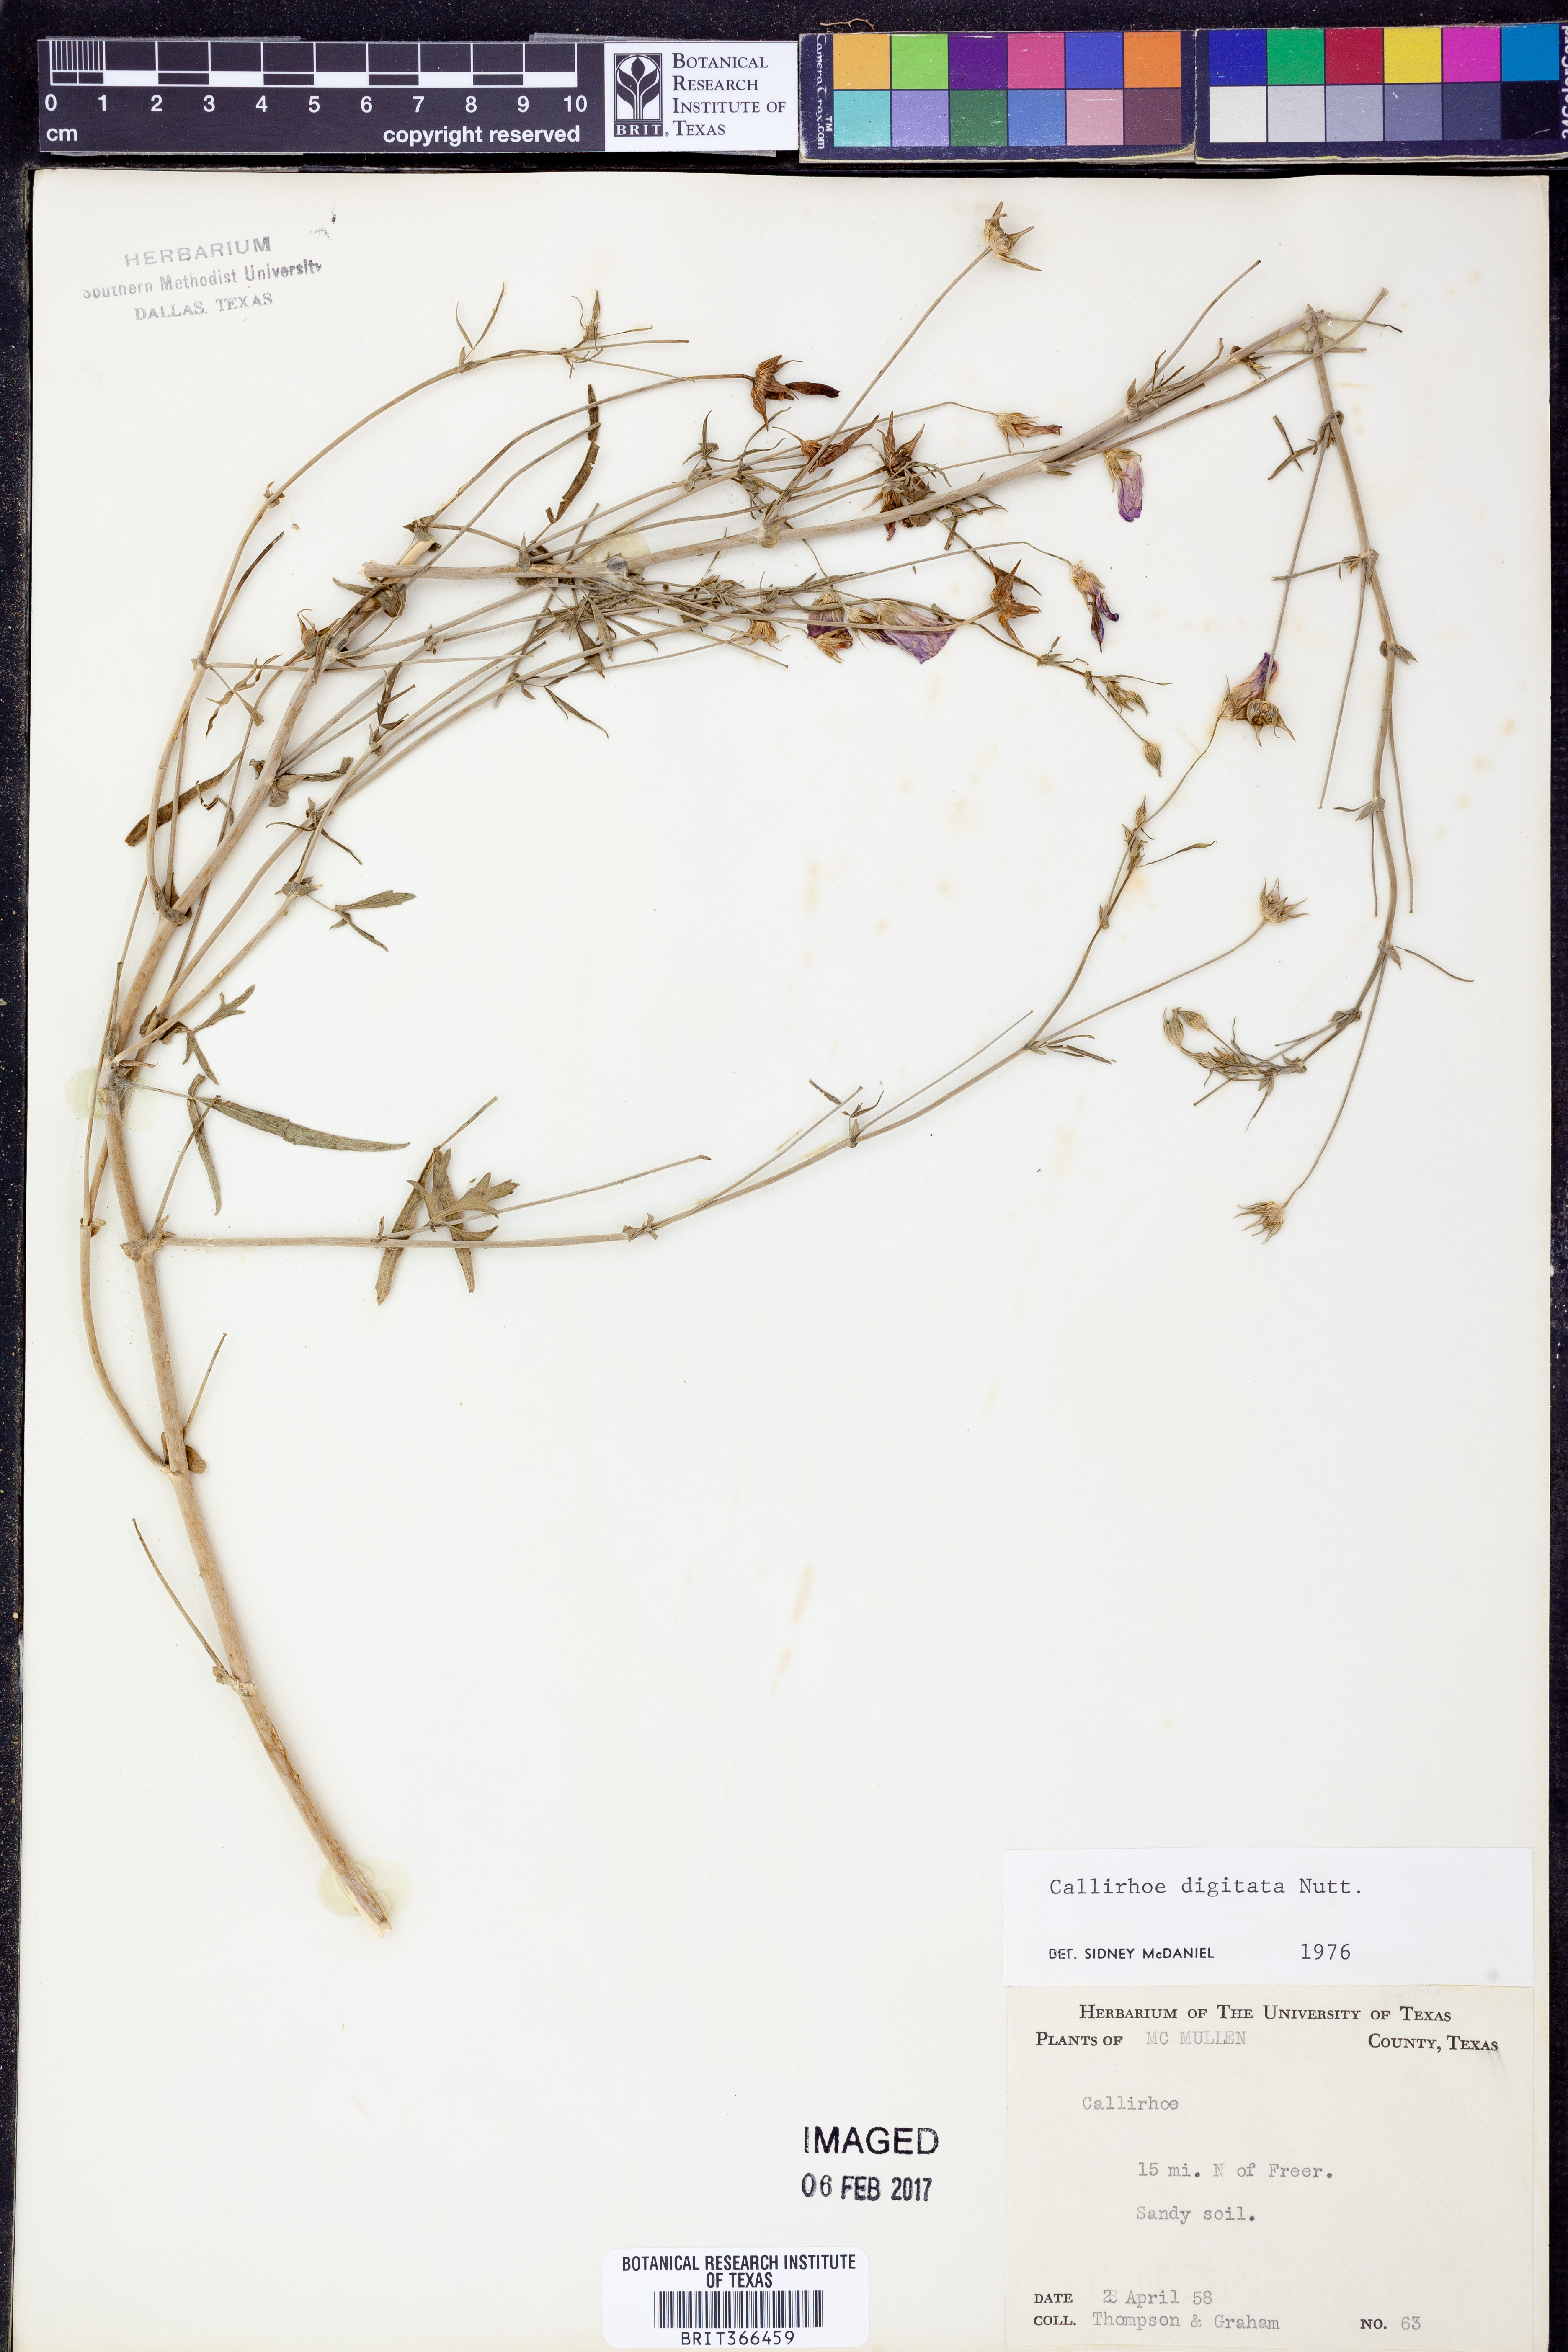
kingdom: Plantae
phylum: Tracheophyta
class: Magnoliopsida
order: Malvales
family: Malvaceae
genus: Callirhoe
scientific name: Callirhoe digitata
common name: Finger poppy-mallow
